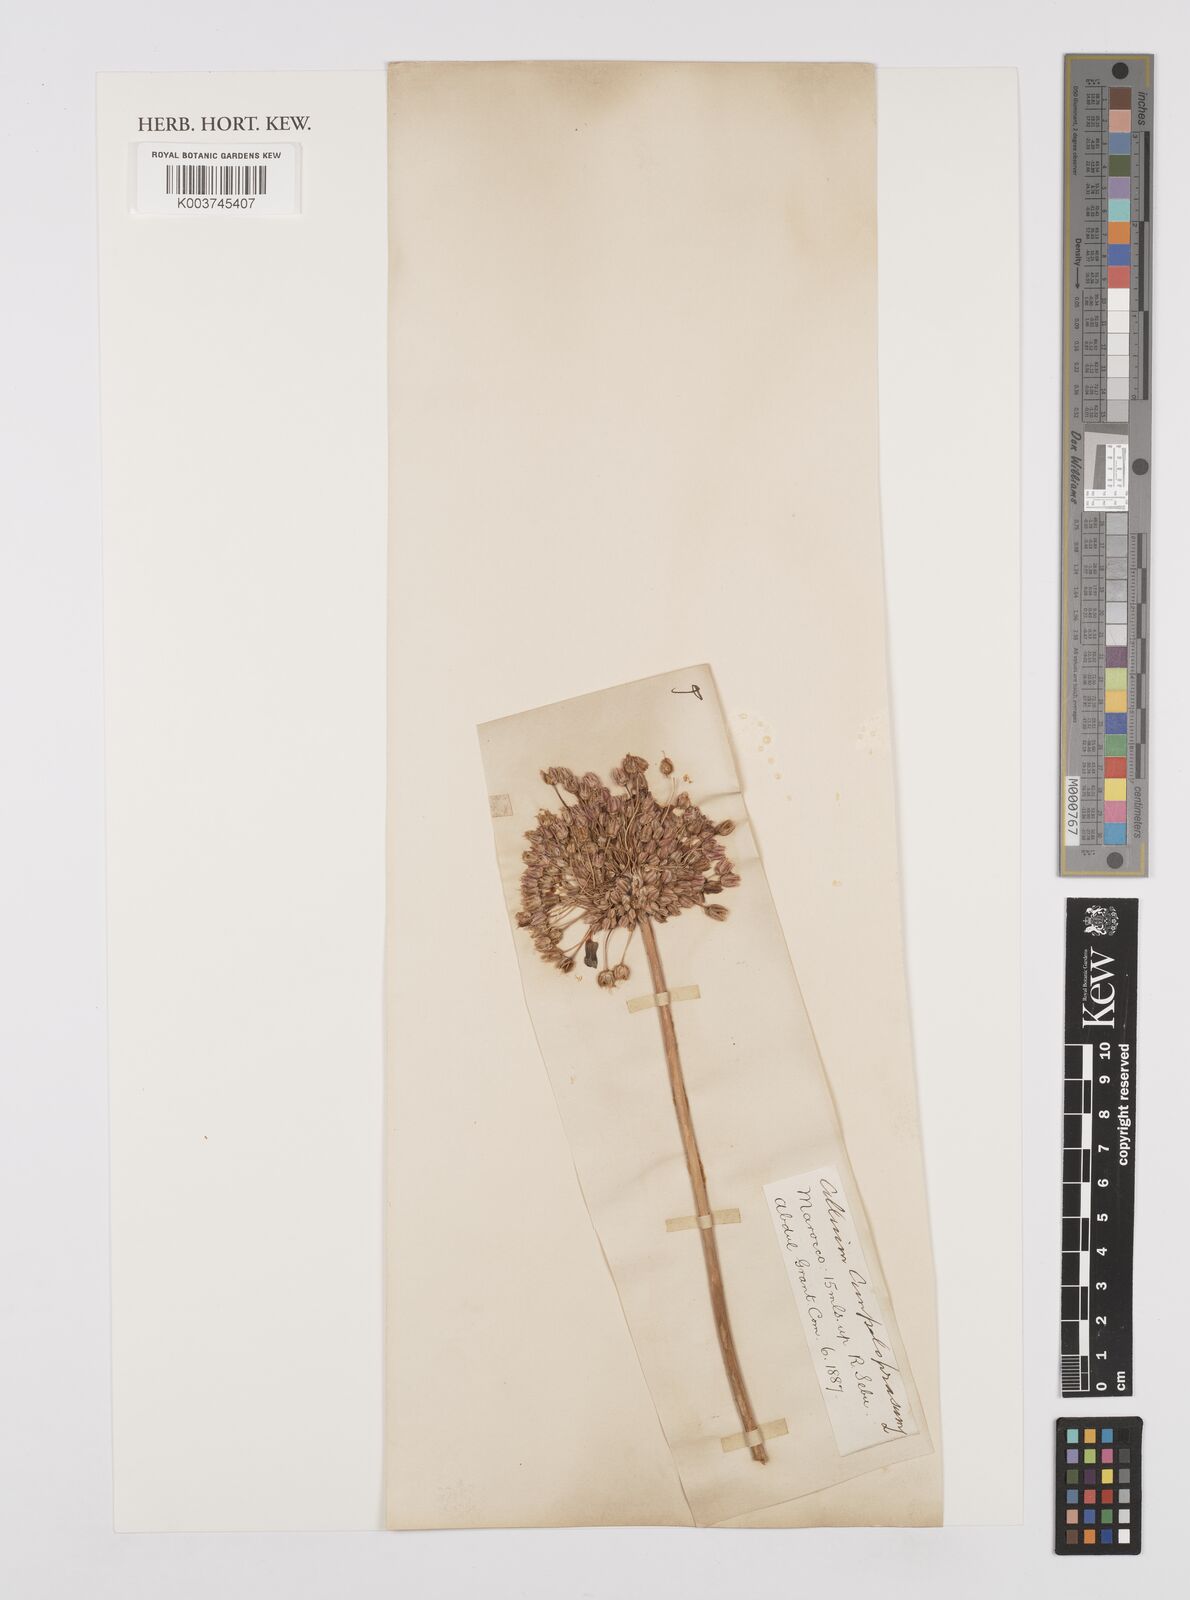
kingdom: Plantae
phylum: Tracheophyta
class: Liliopsida
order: Asparagales
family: Amaryllidaceae
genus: Allium
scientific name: Allium rotundum
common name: Sand leek
